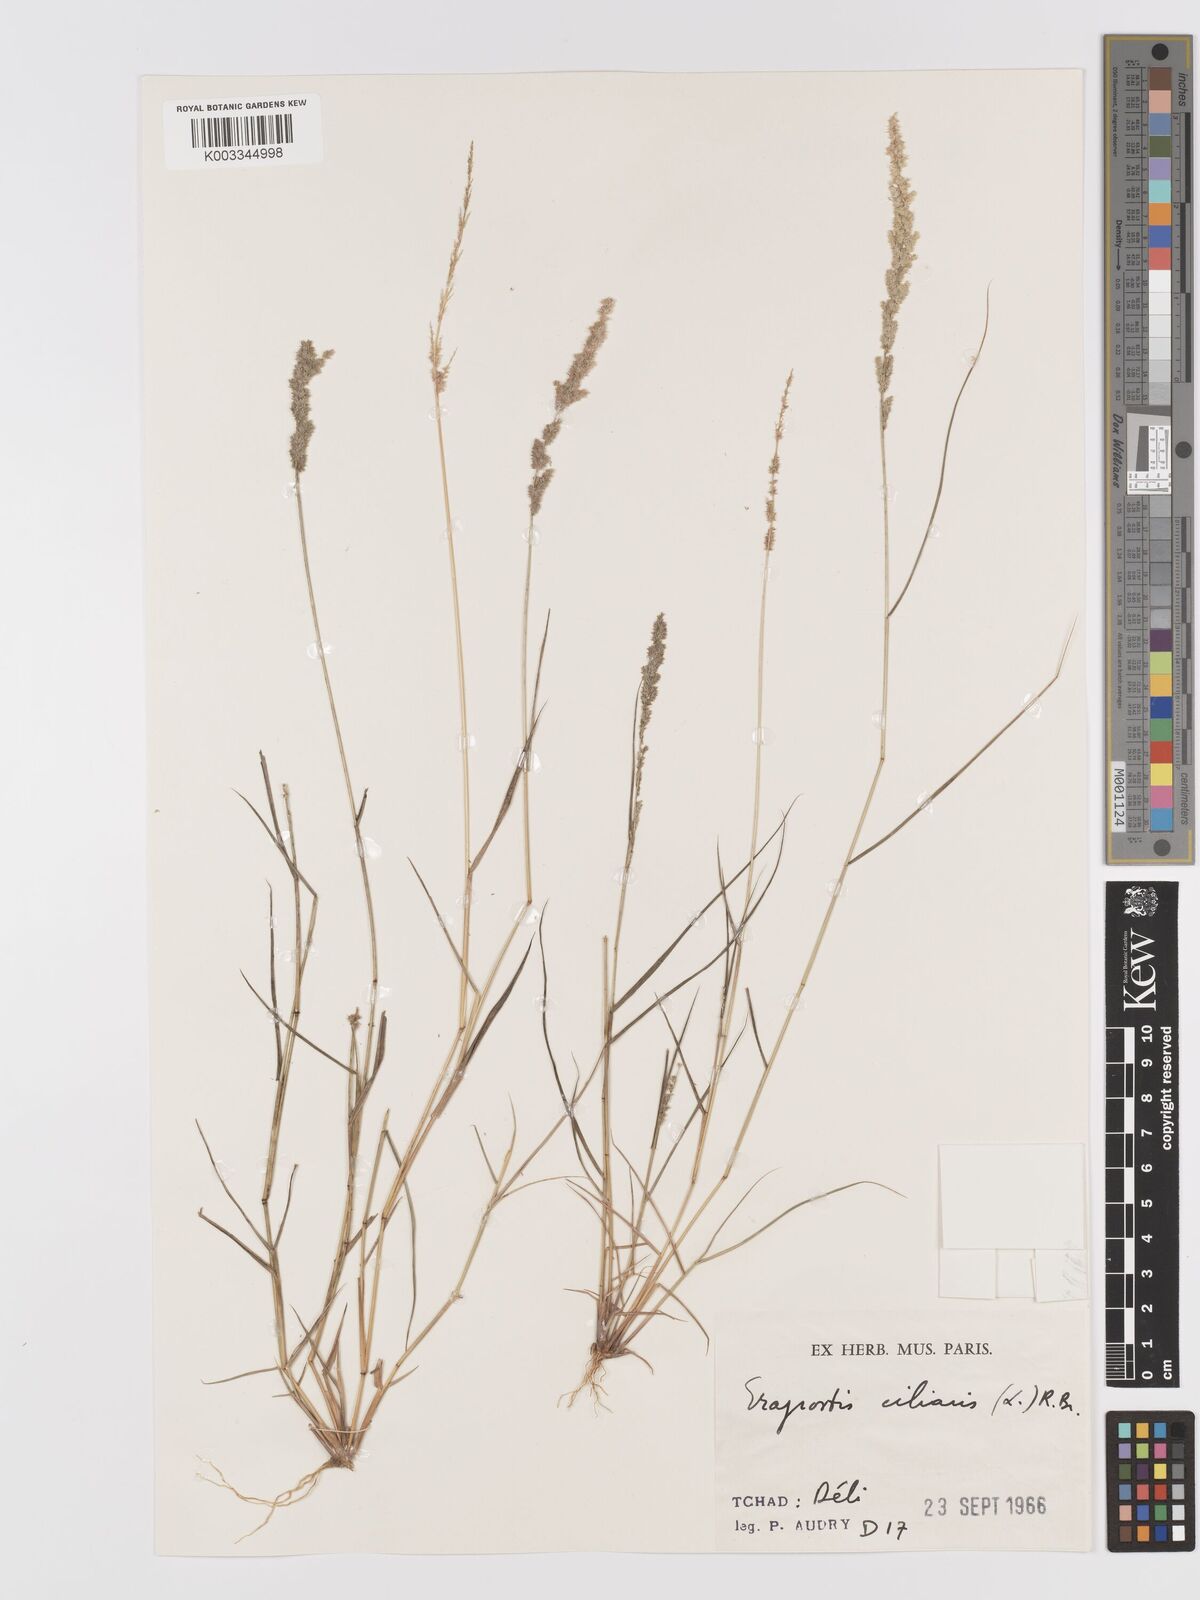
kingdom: Plantae
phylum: Tracheophyta
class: Liliopsida
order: Poales
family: Poaceae
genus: Eragrostis
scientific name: Eragrostis ciliaris
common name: Gophertail lovegrass
